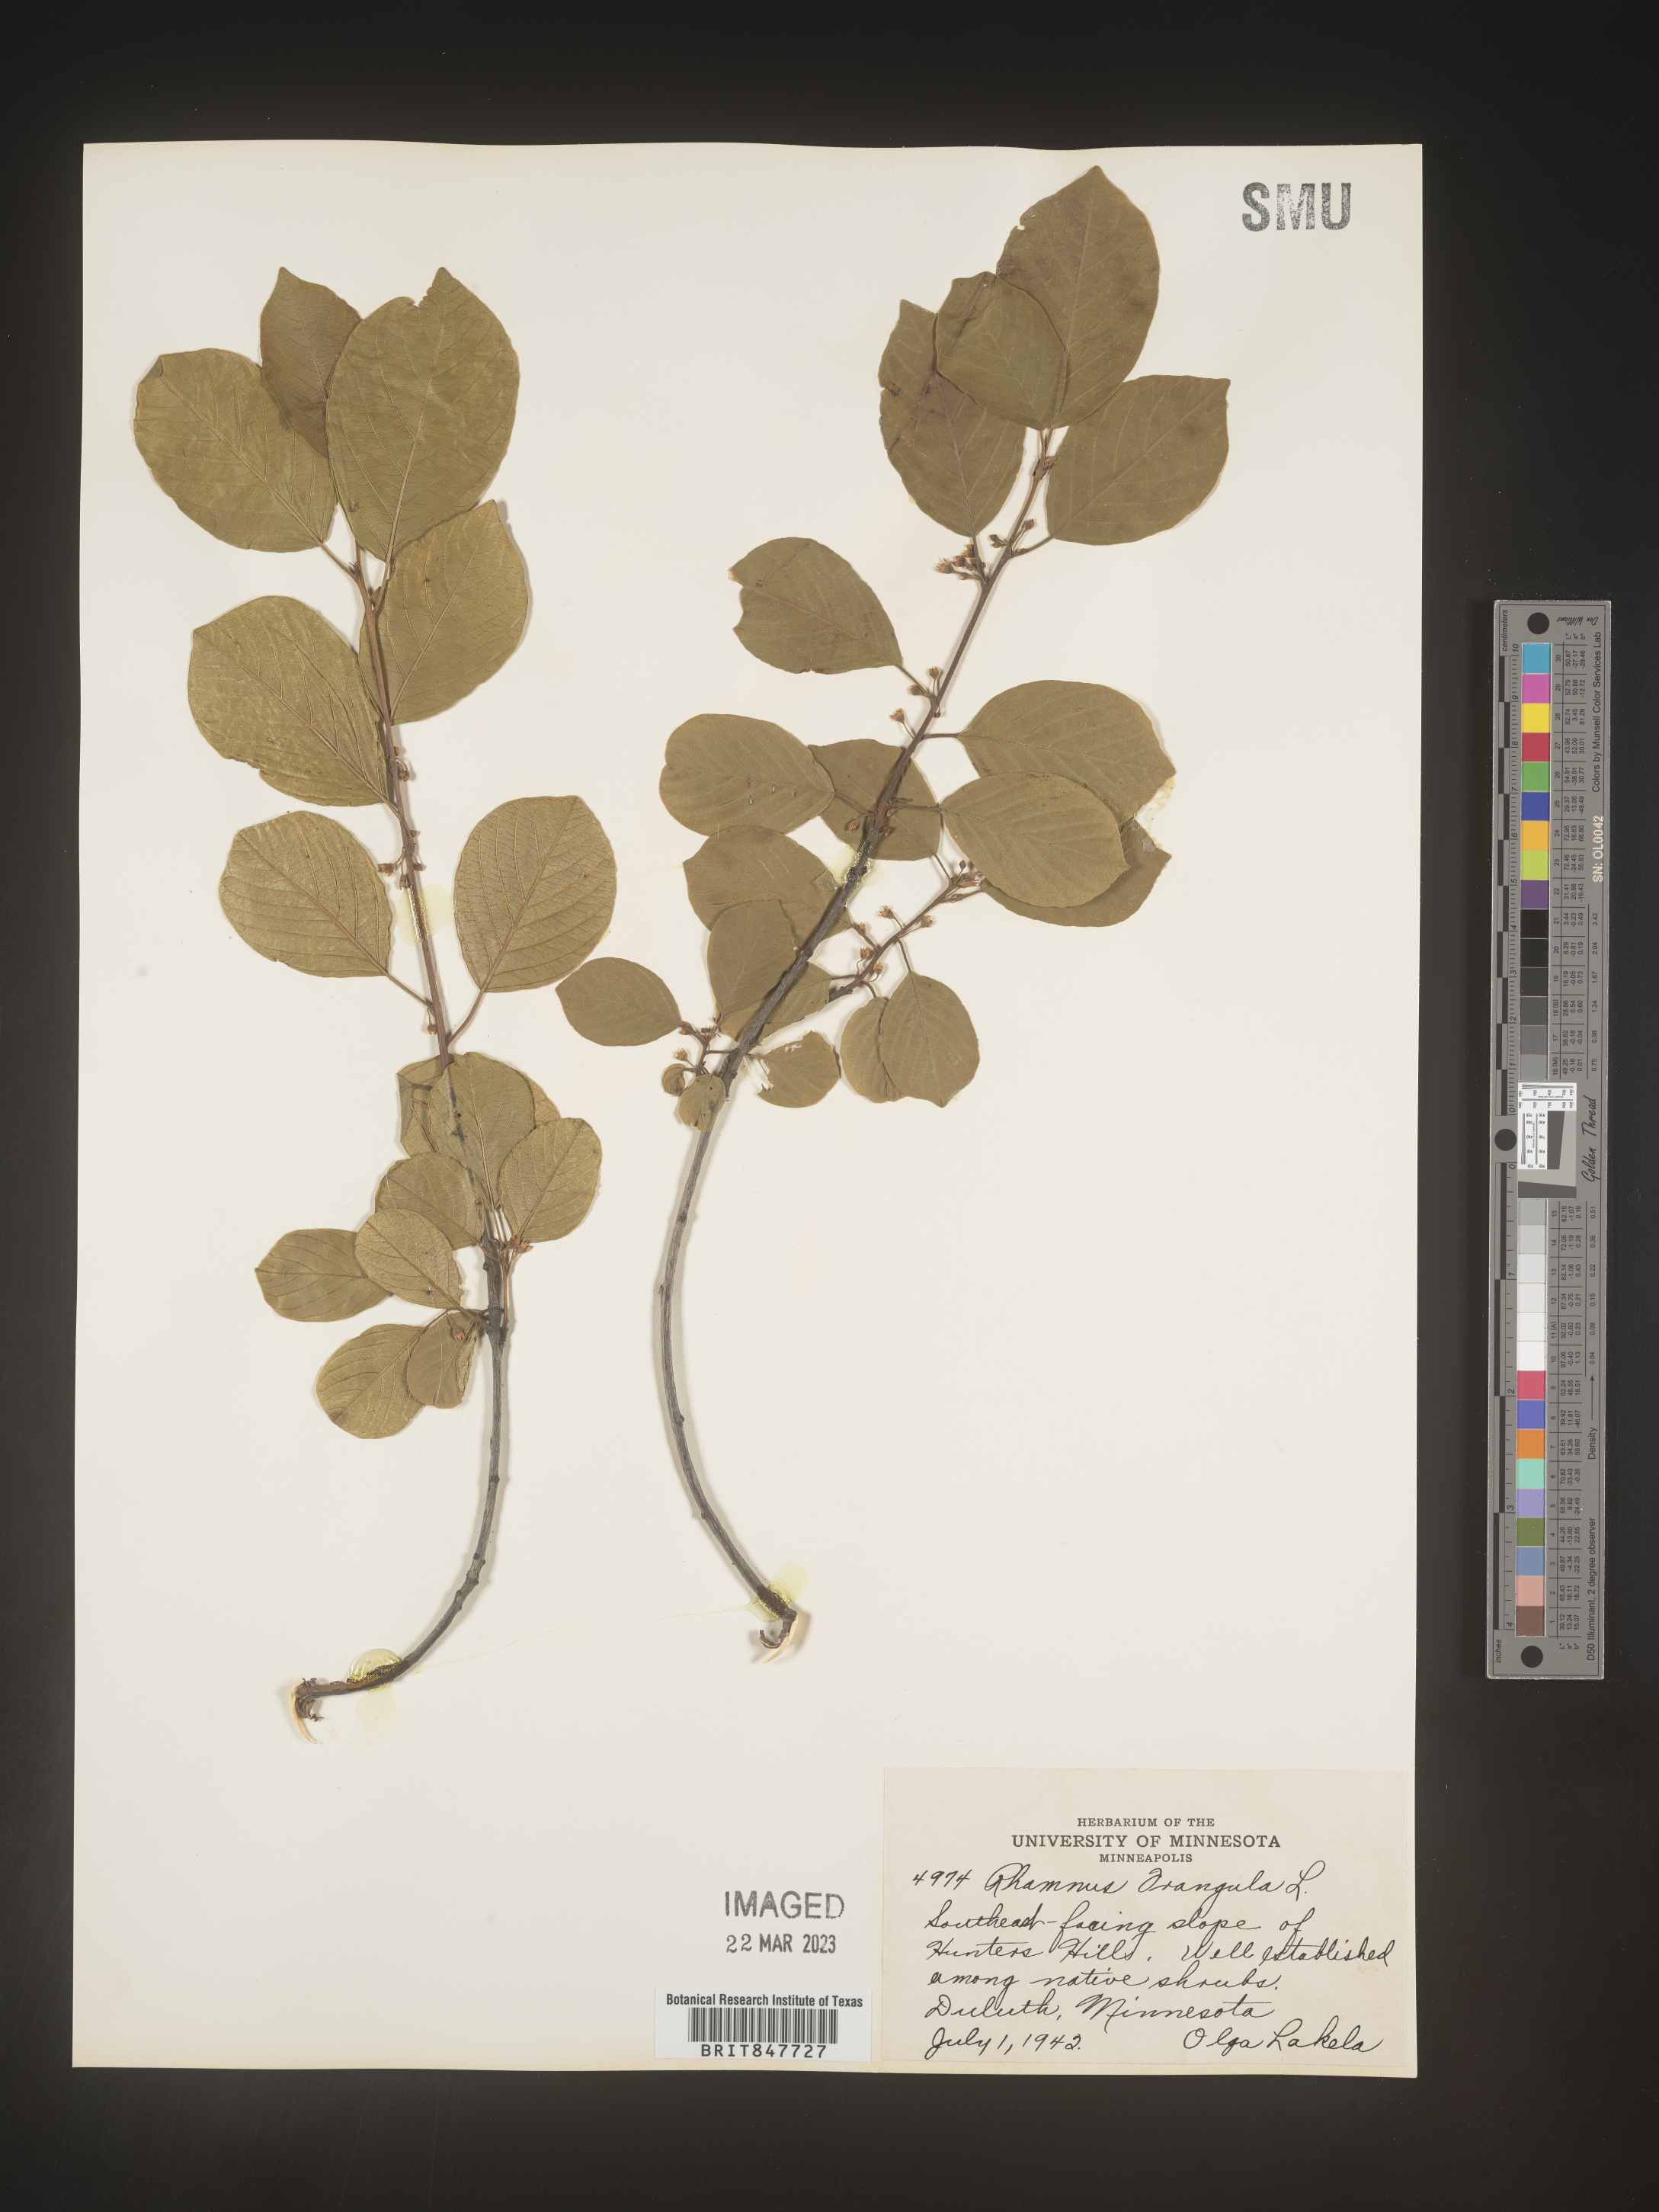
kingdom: Plantae
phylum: Tracheophyta
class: Magnoliopsida
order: Rosales
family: Rhamnaceae
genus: Frangula
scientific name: Frangula alnus
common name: Alder buckthorn
